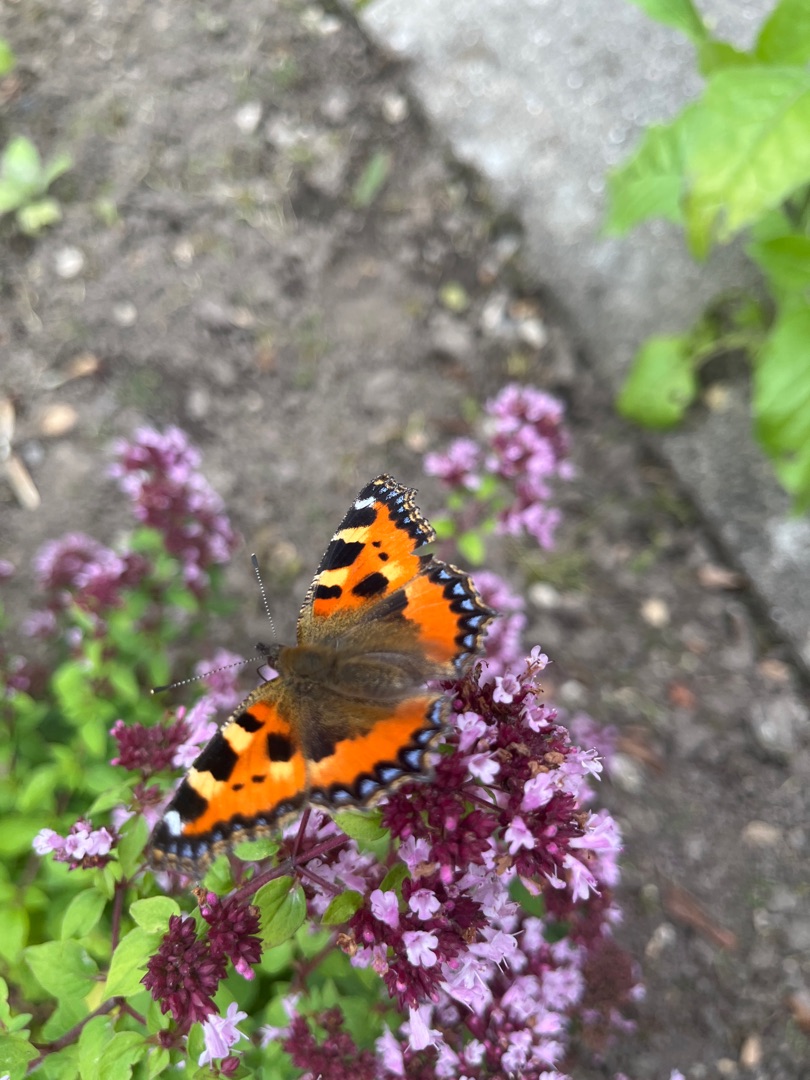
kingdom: Animalia
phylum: Arthropoda
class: Insecta
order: Lepidoptera
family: Nymphalidae
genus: Aglais
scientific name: Aglais urticae
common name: Nældens takvinge
